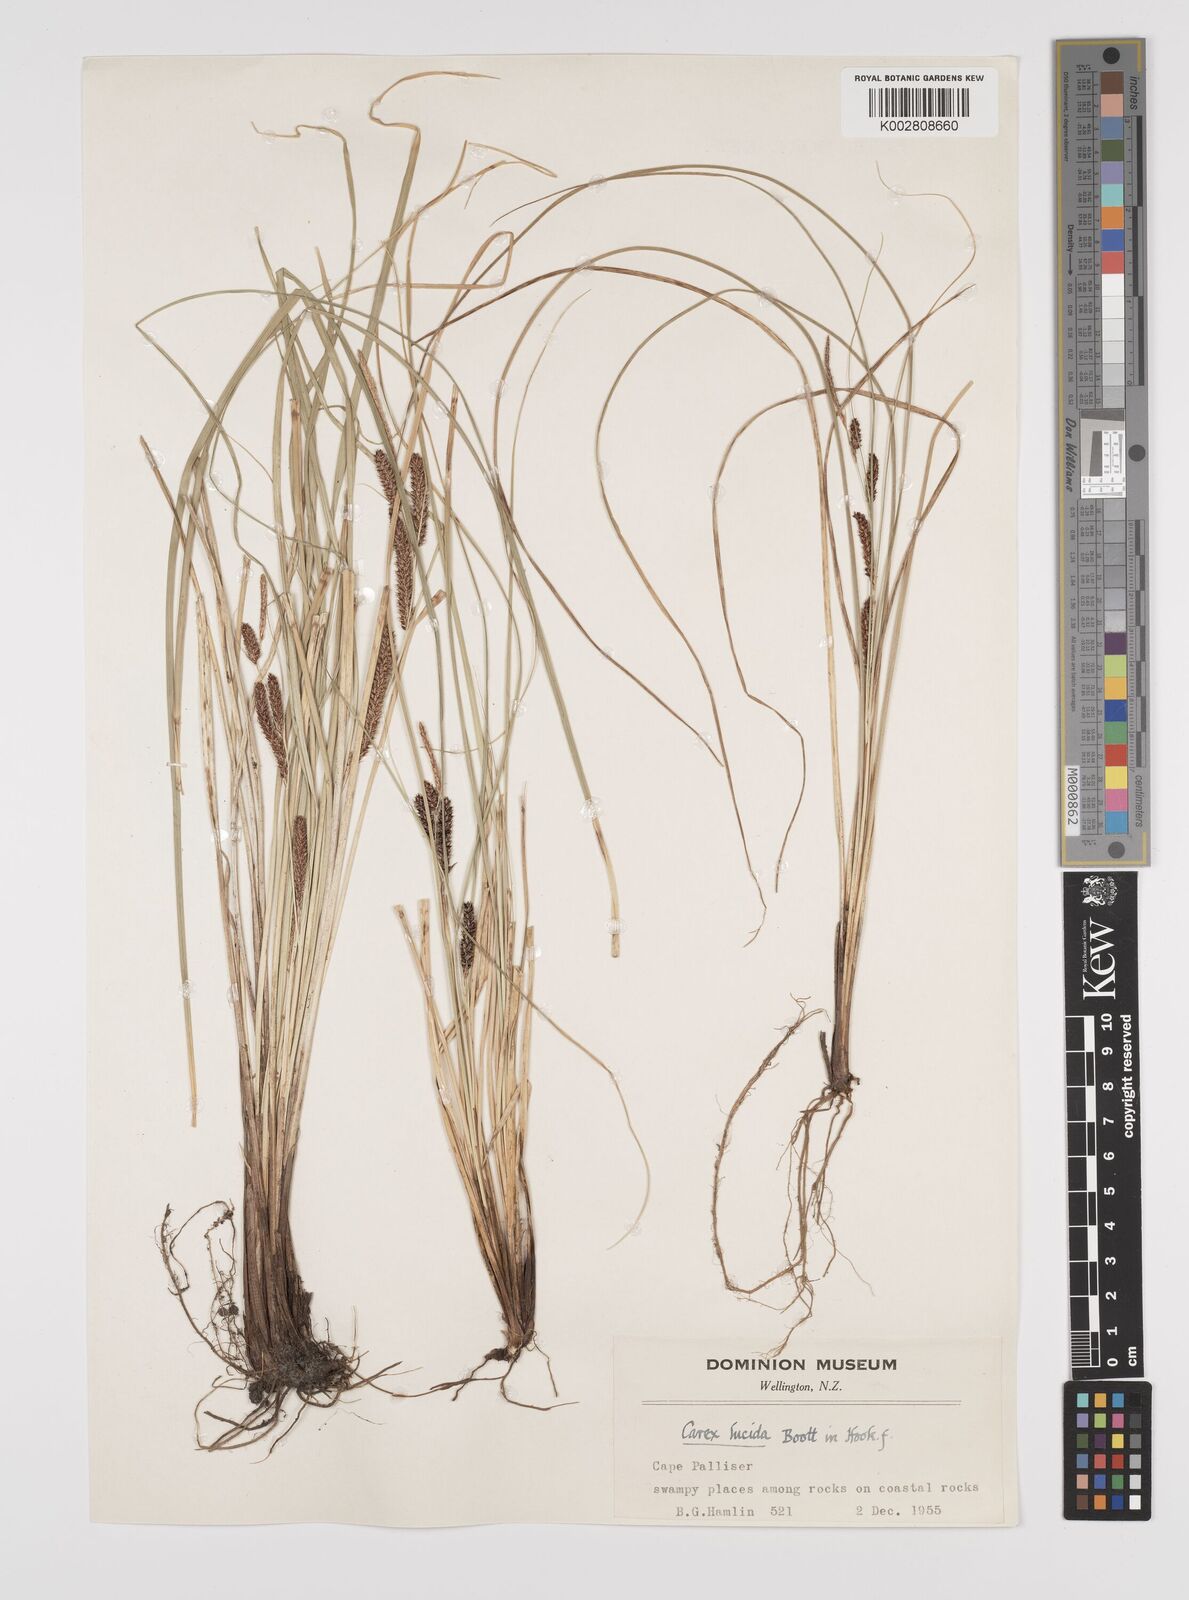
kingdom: Plantae
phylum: Tracheophyta
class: Liliopsida
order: Poales
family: Cyperaceae
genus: Carex
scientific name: Carex flagellifera
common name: Glen murray tussock
